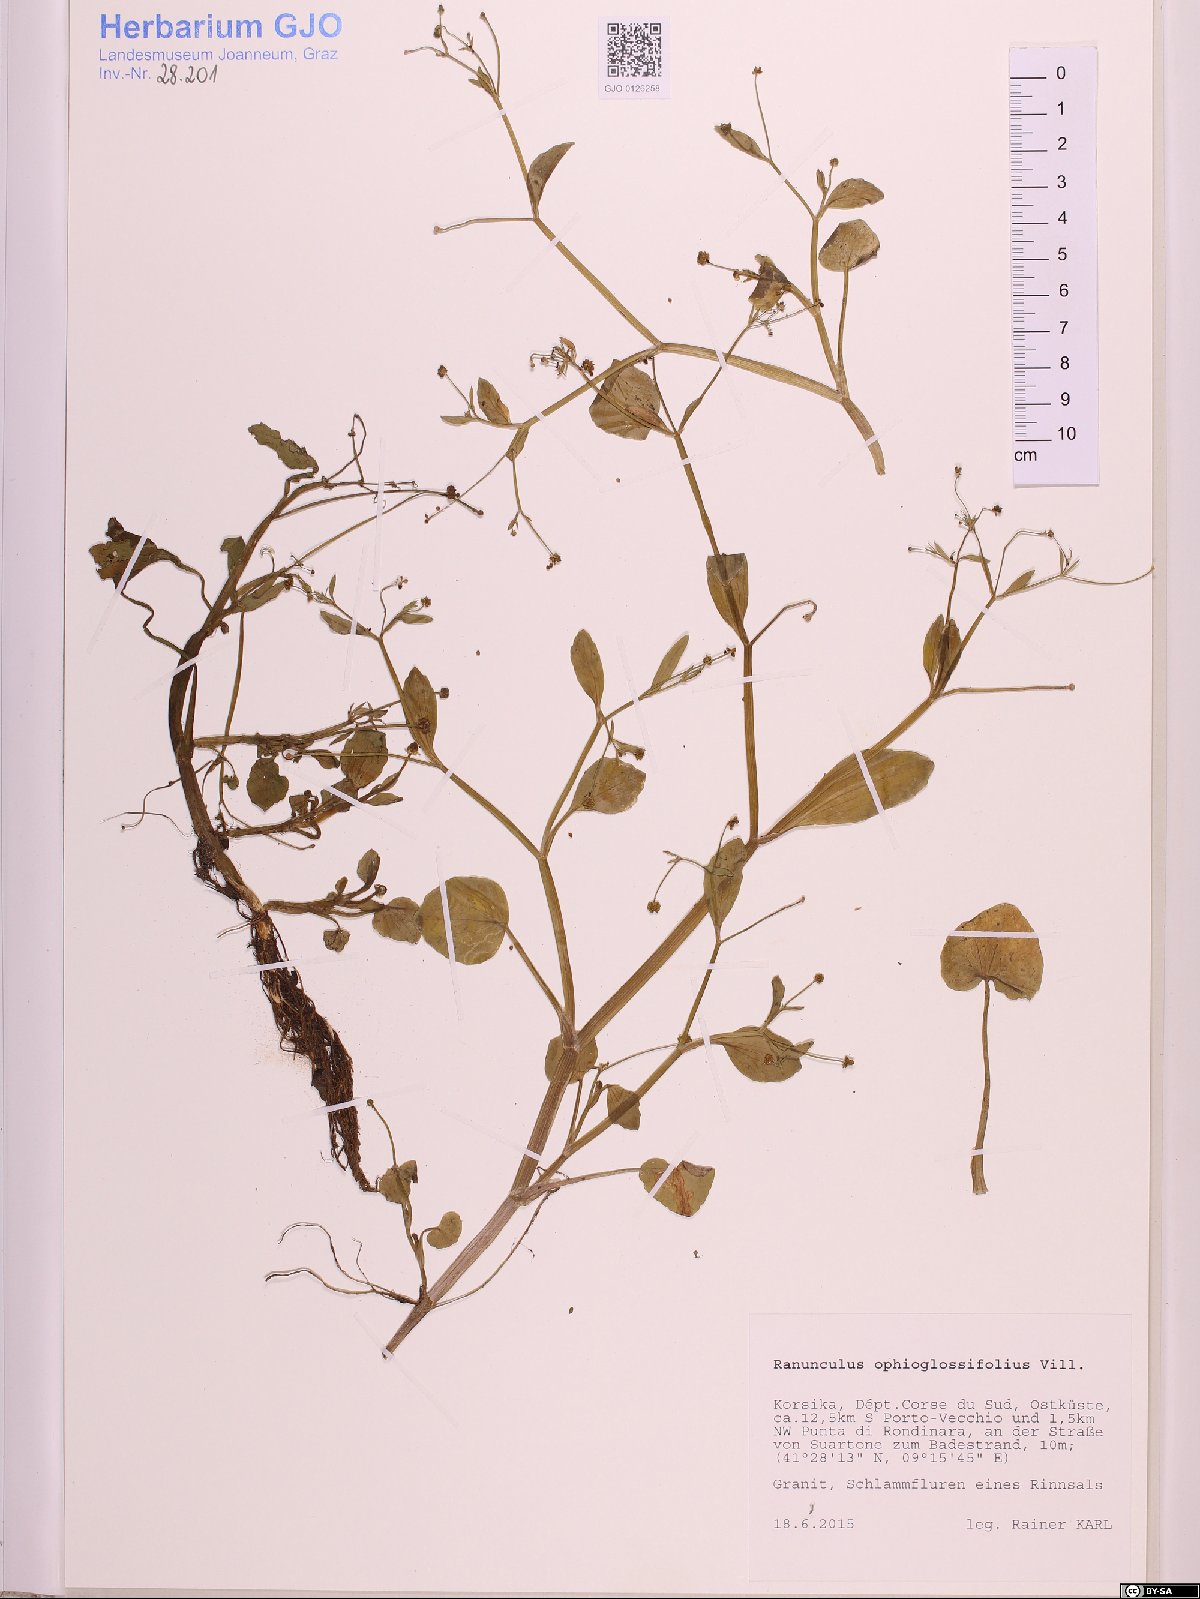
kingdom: Plantae
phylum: Tracheophyta
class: Magnoliopsida
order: Ranunculales
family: Ranunculaceae
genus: Ranunculus
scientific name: Ranunculus ophioglossifolius
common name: Adder's-tongue spearwort
